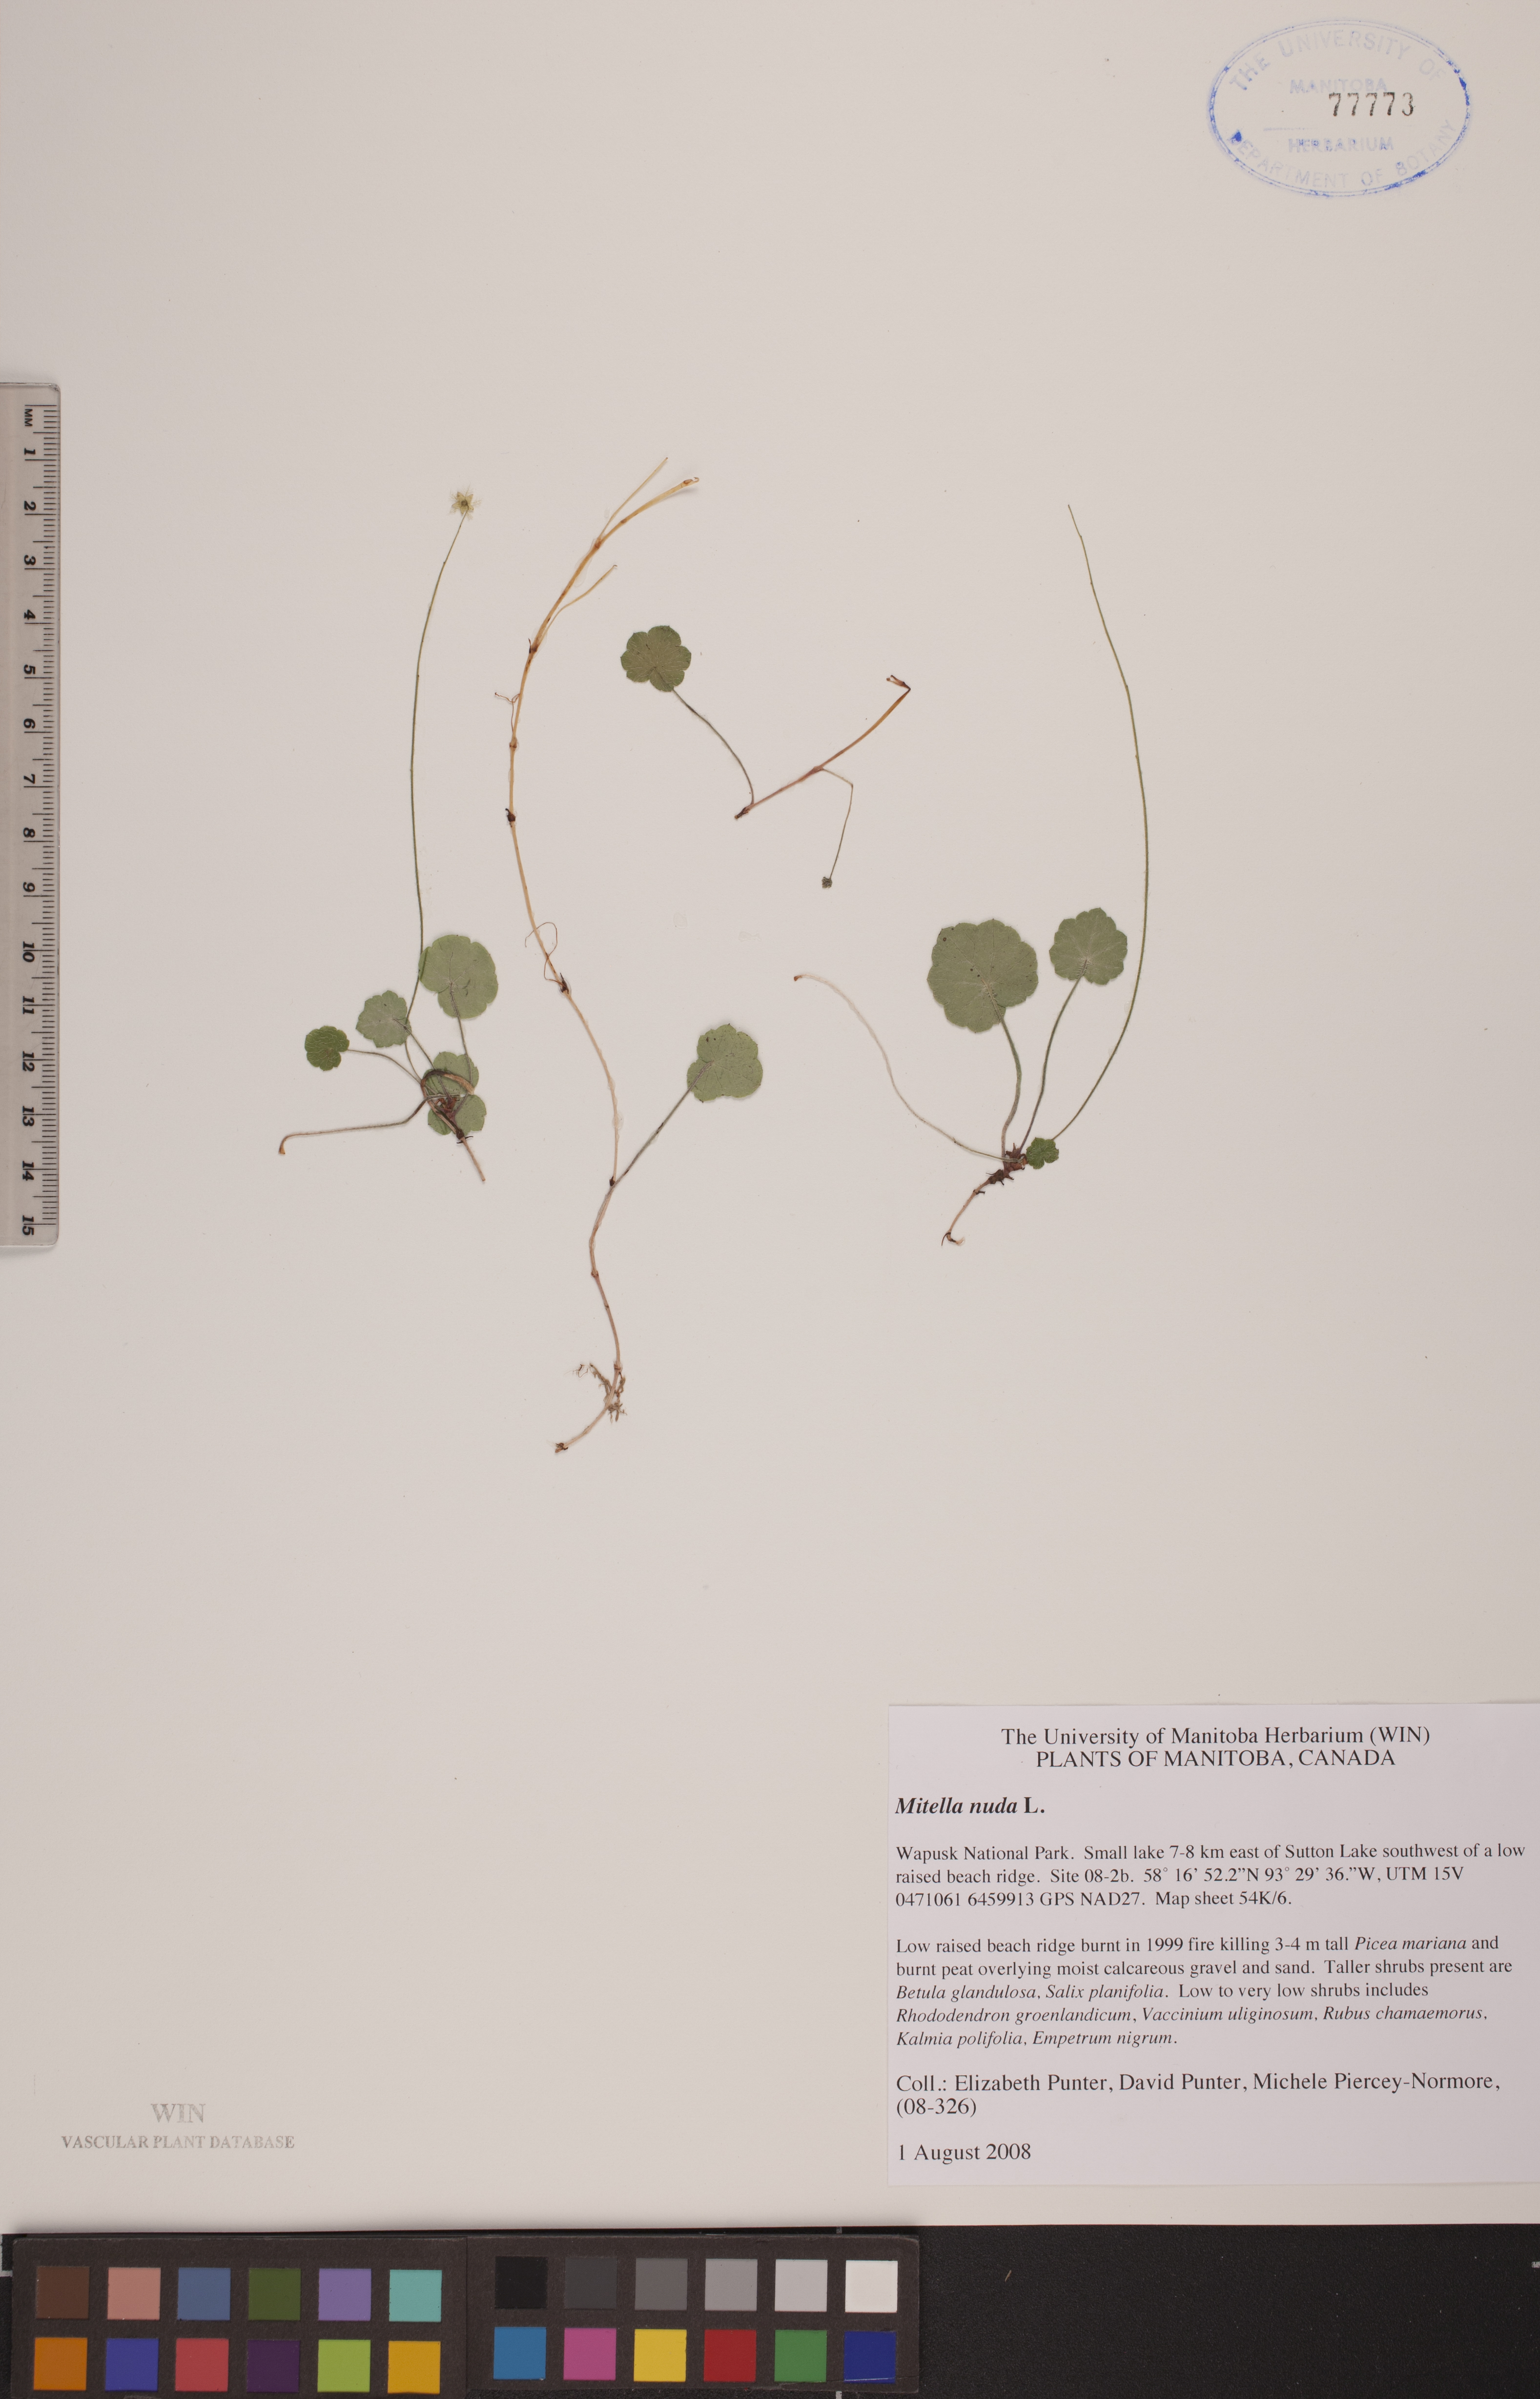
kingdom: Plantae
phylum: Tracheophyta
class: Magnoliopsida
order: Saxifragales
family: Saxifragaceae
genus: Mitella
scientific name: Mitella nuda
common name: Bare-stemmed bishop's-cap
